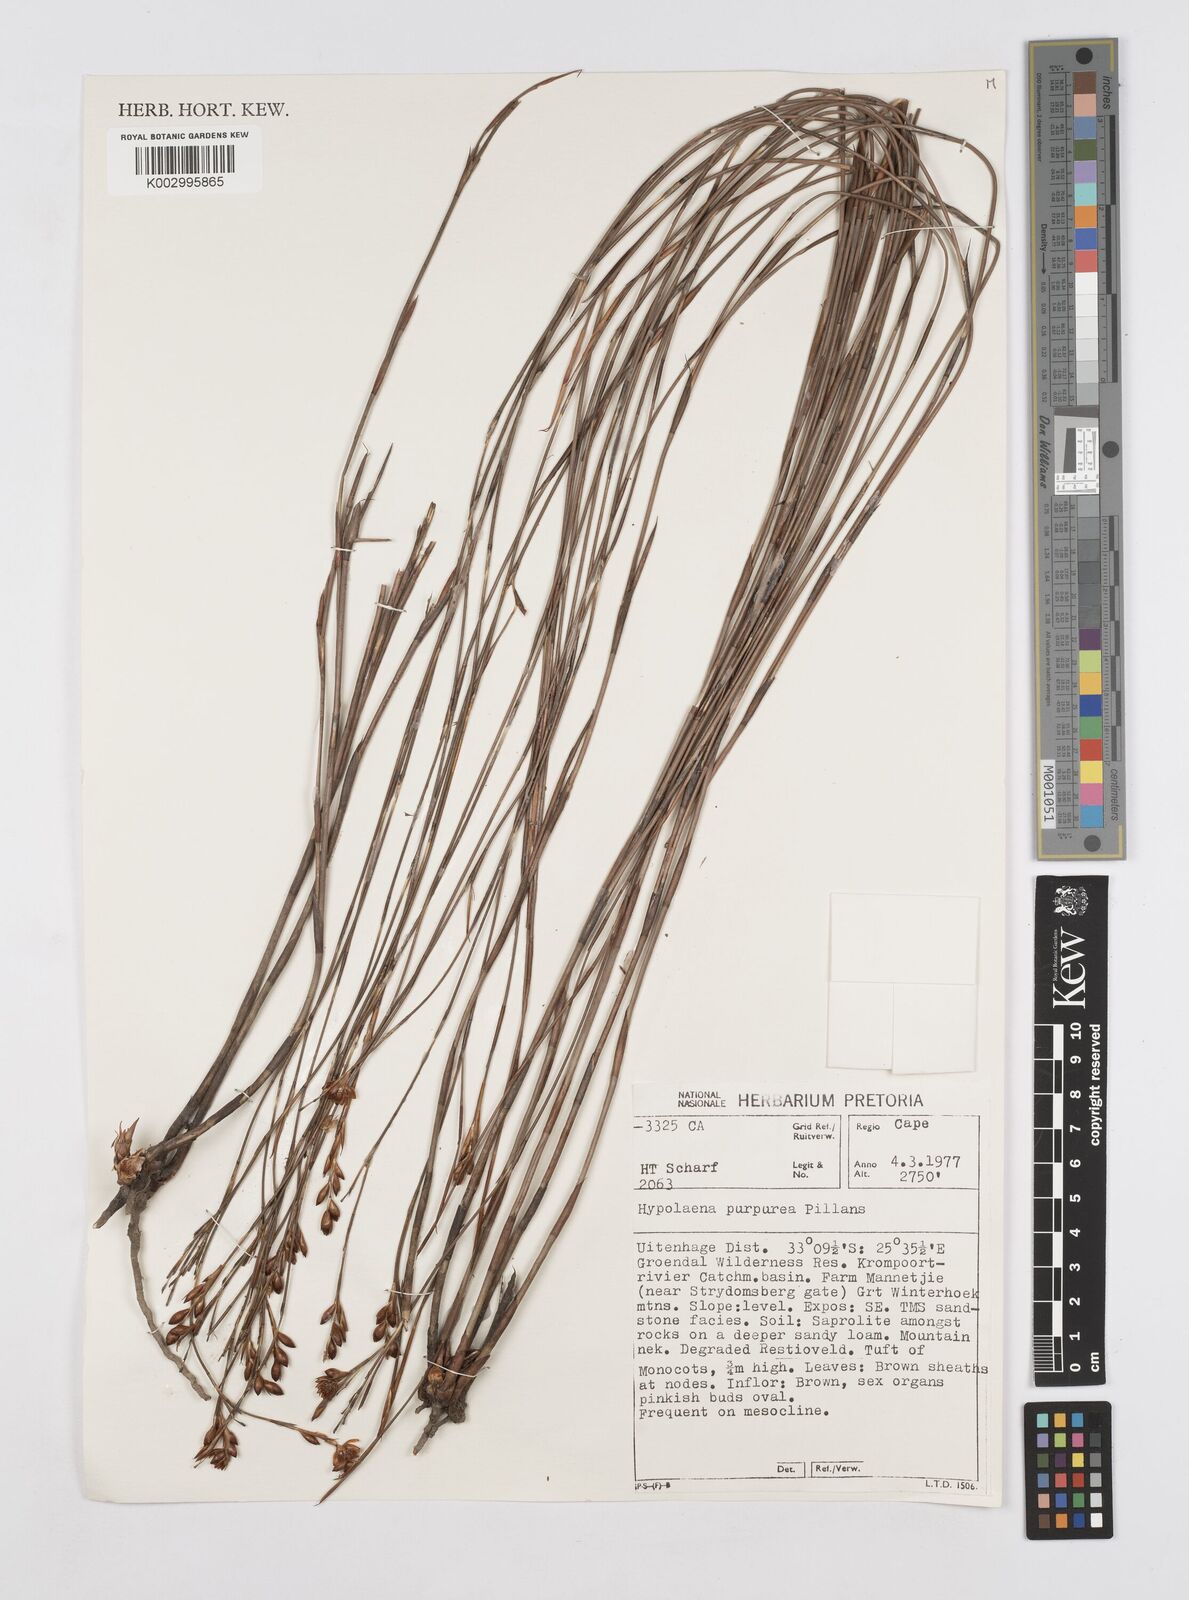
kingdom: Plantae
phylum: Tracheophyta
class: Liliopsida
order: Poales
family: Restionaceae
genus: Mastersiella
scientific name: Mastersiella purpurea
